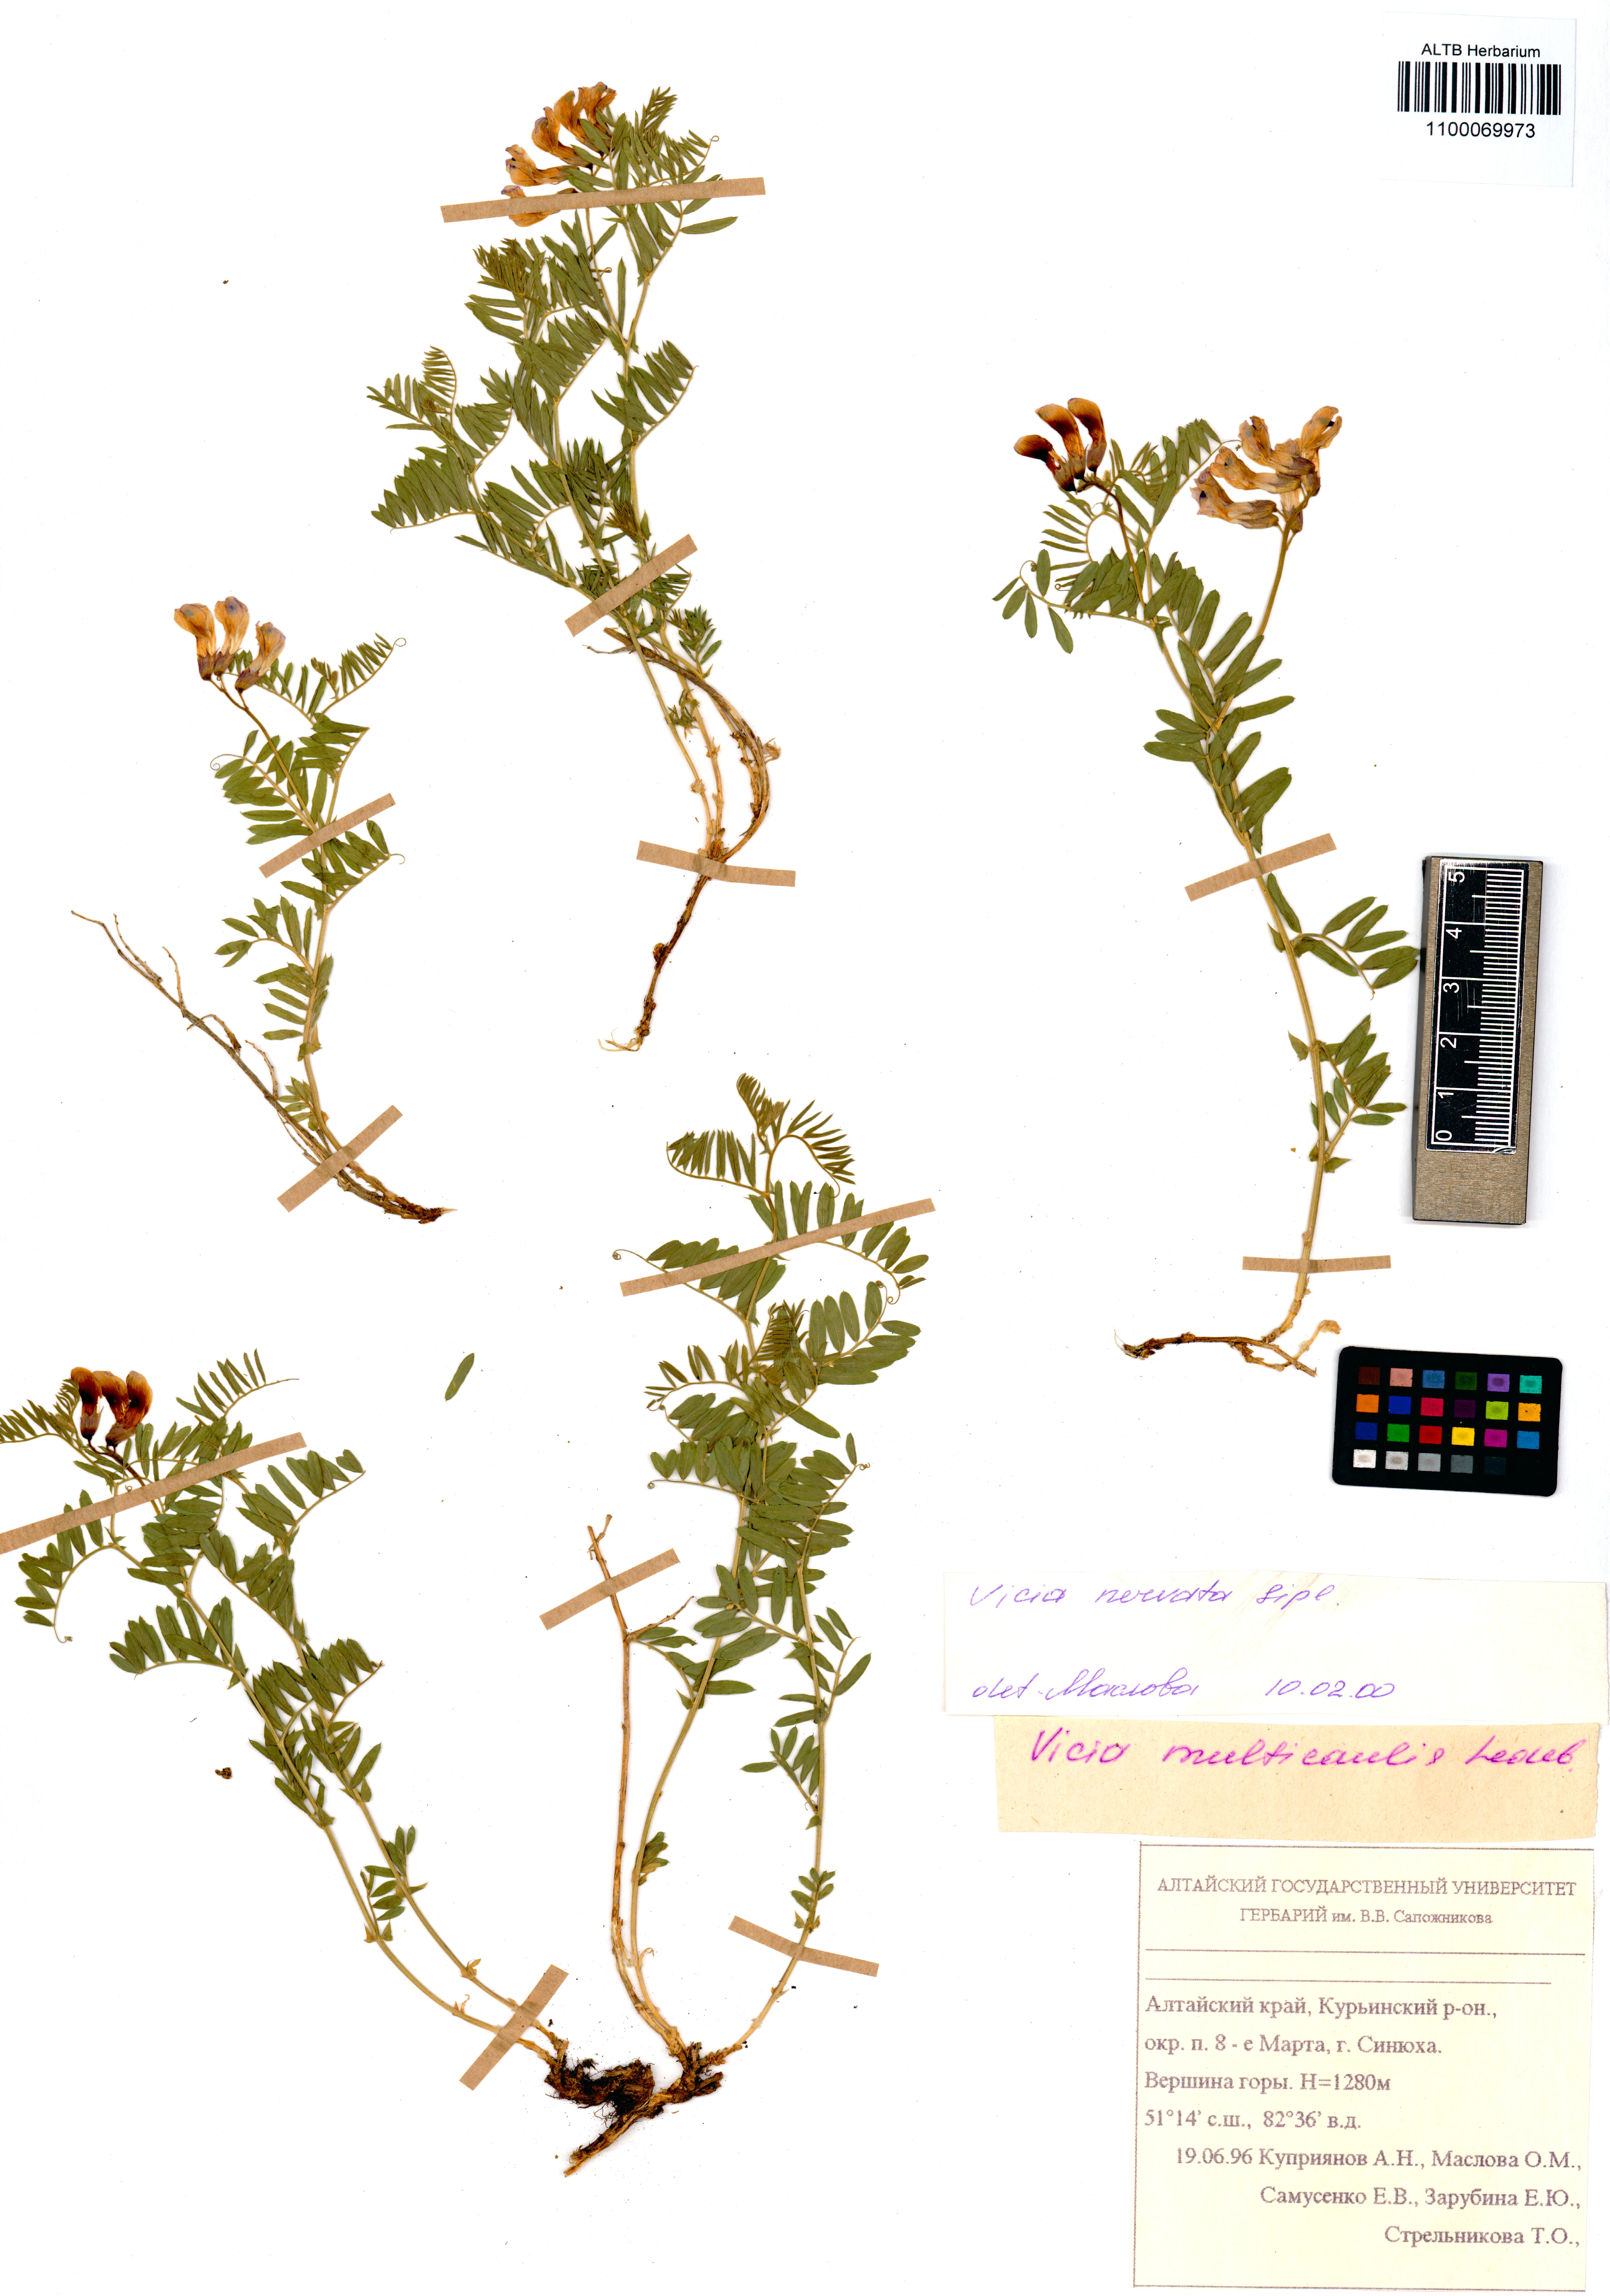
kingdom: Plantae
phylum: Tracheophyta
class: Magnoliopsida
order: Fabales
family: Fabaceae
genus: Vicia
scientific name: Vicia multicaulis
